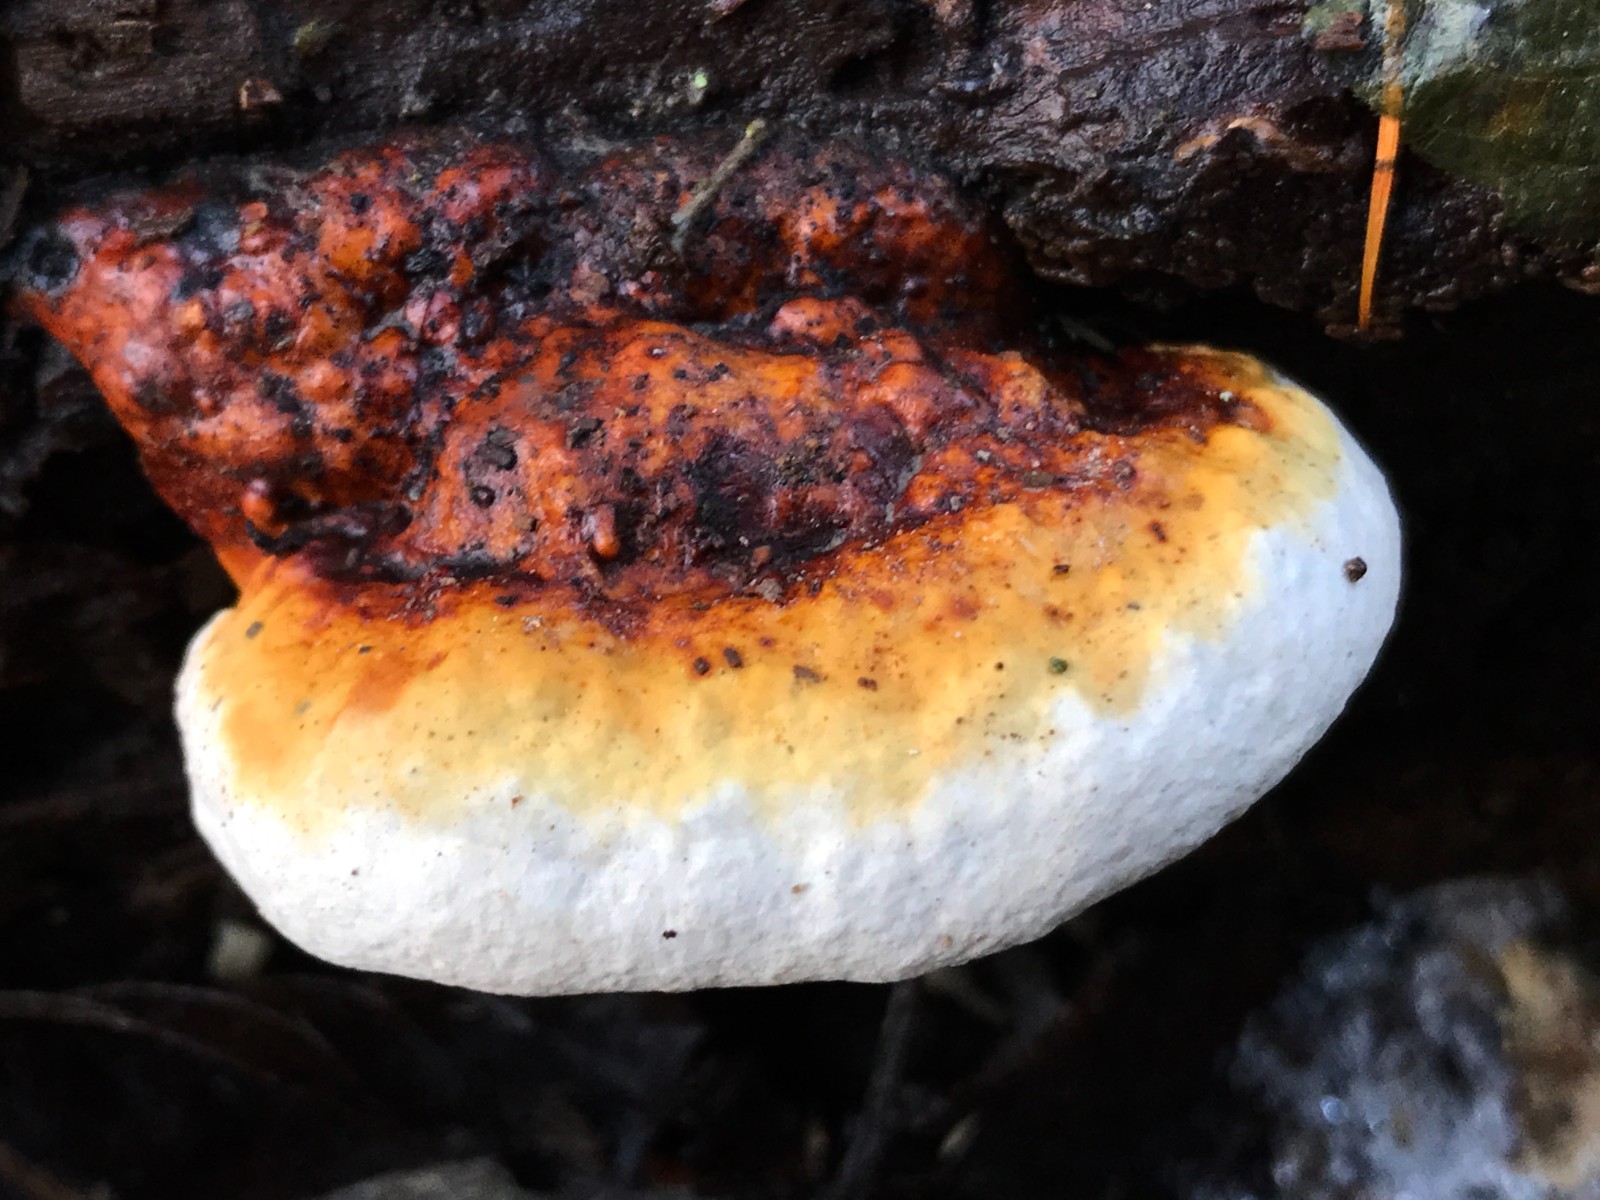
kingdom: Fungi
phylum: Basidiomycota
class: Agaricomycetes
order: Polyporales
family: Fomitopsidaceae
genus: Fomitopsis
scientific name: Fomitopsis pinicola
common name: randbæltet hovporesvamp
